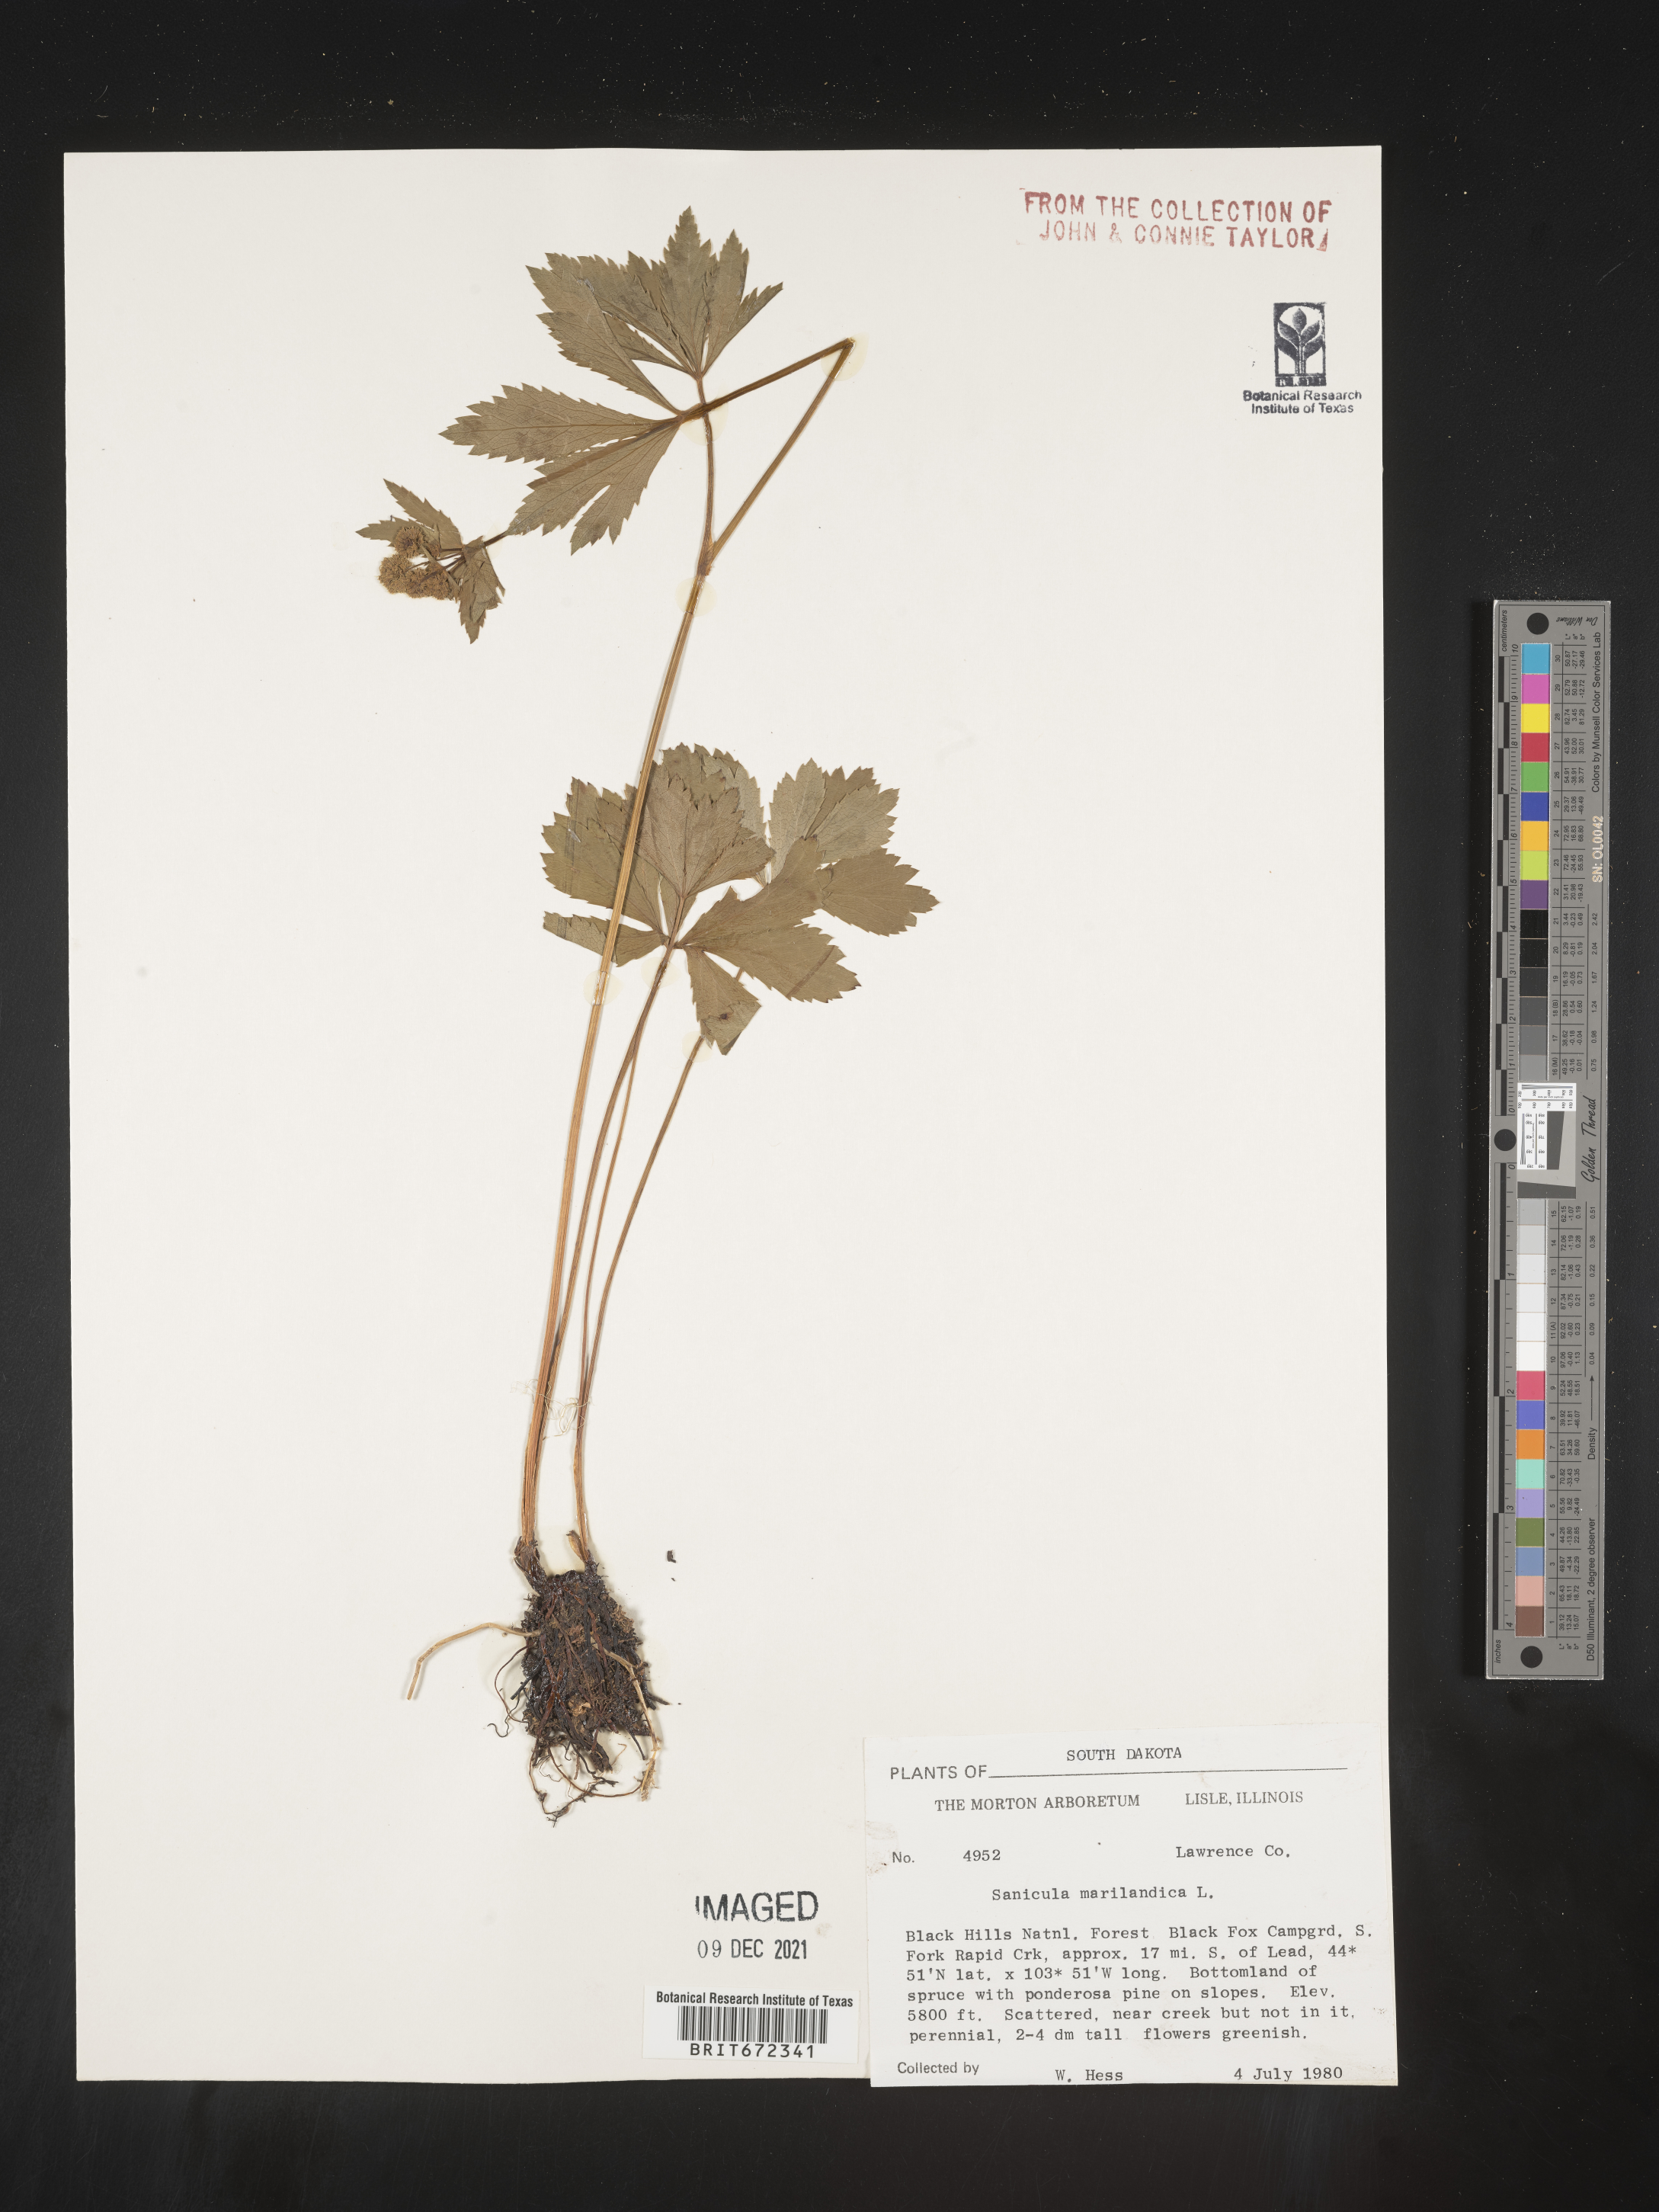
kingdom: Plantae
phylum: Tracheophyta
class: Magnoliopsida
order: Apiales
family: Apiaceae
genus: Sanicula
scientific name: Sanicula marilandica
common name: Black snakeroot
